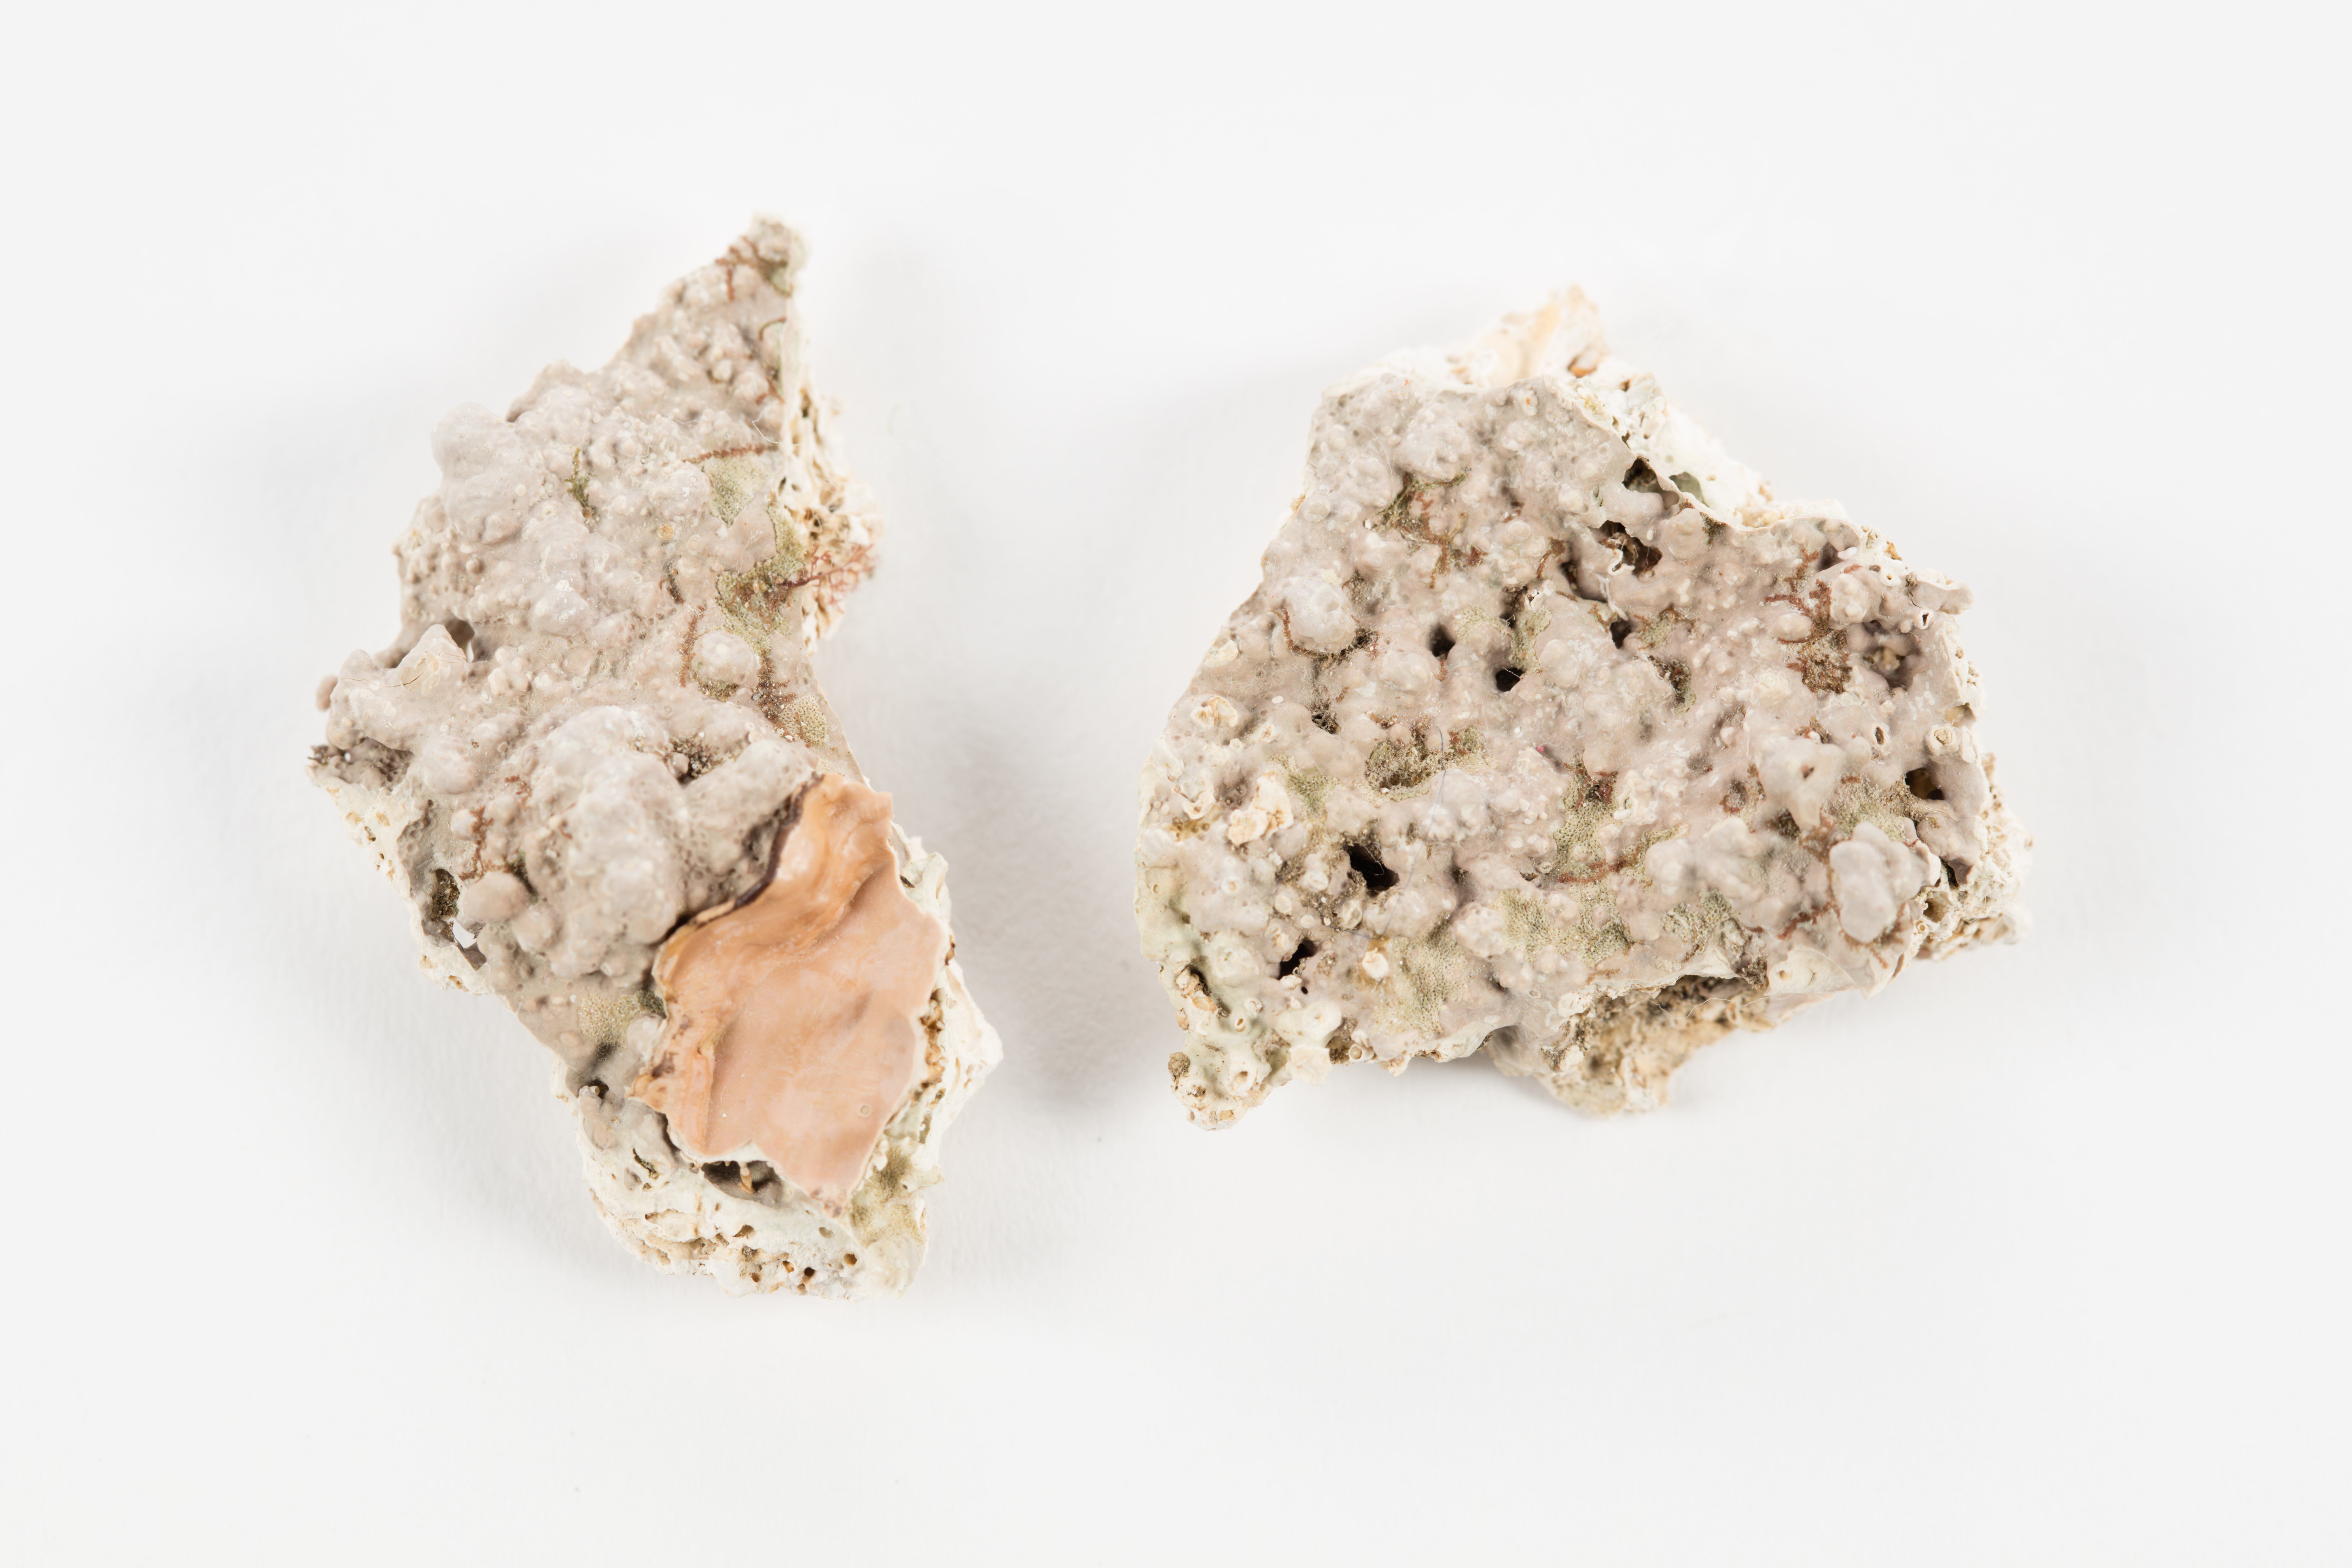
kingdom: Plantae
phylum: Rhodophyta
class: Florideophyceae
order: Corallinales
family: Hapalidiaceae
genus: Lithothamnion
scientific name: Lithothamnion
